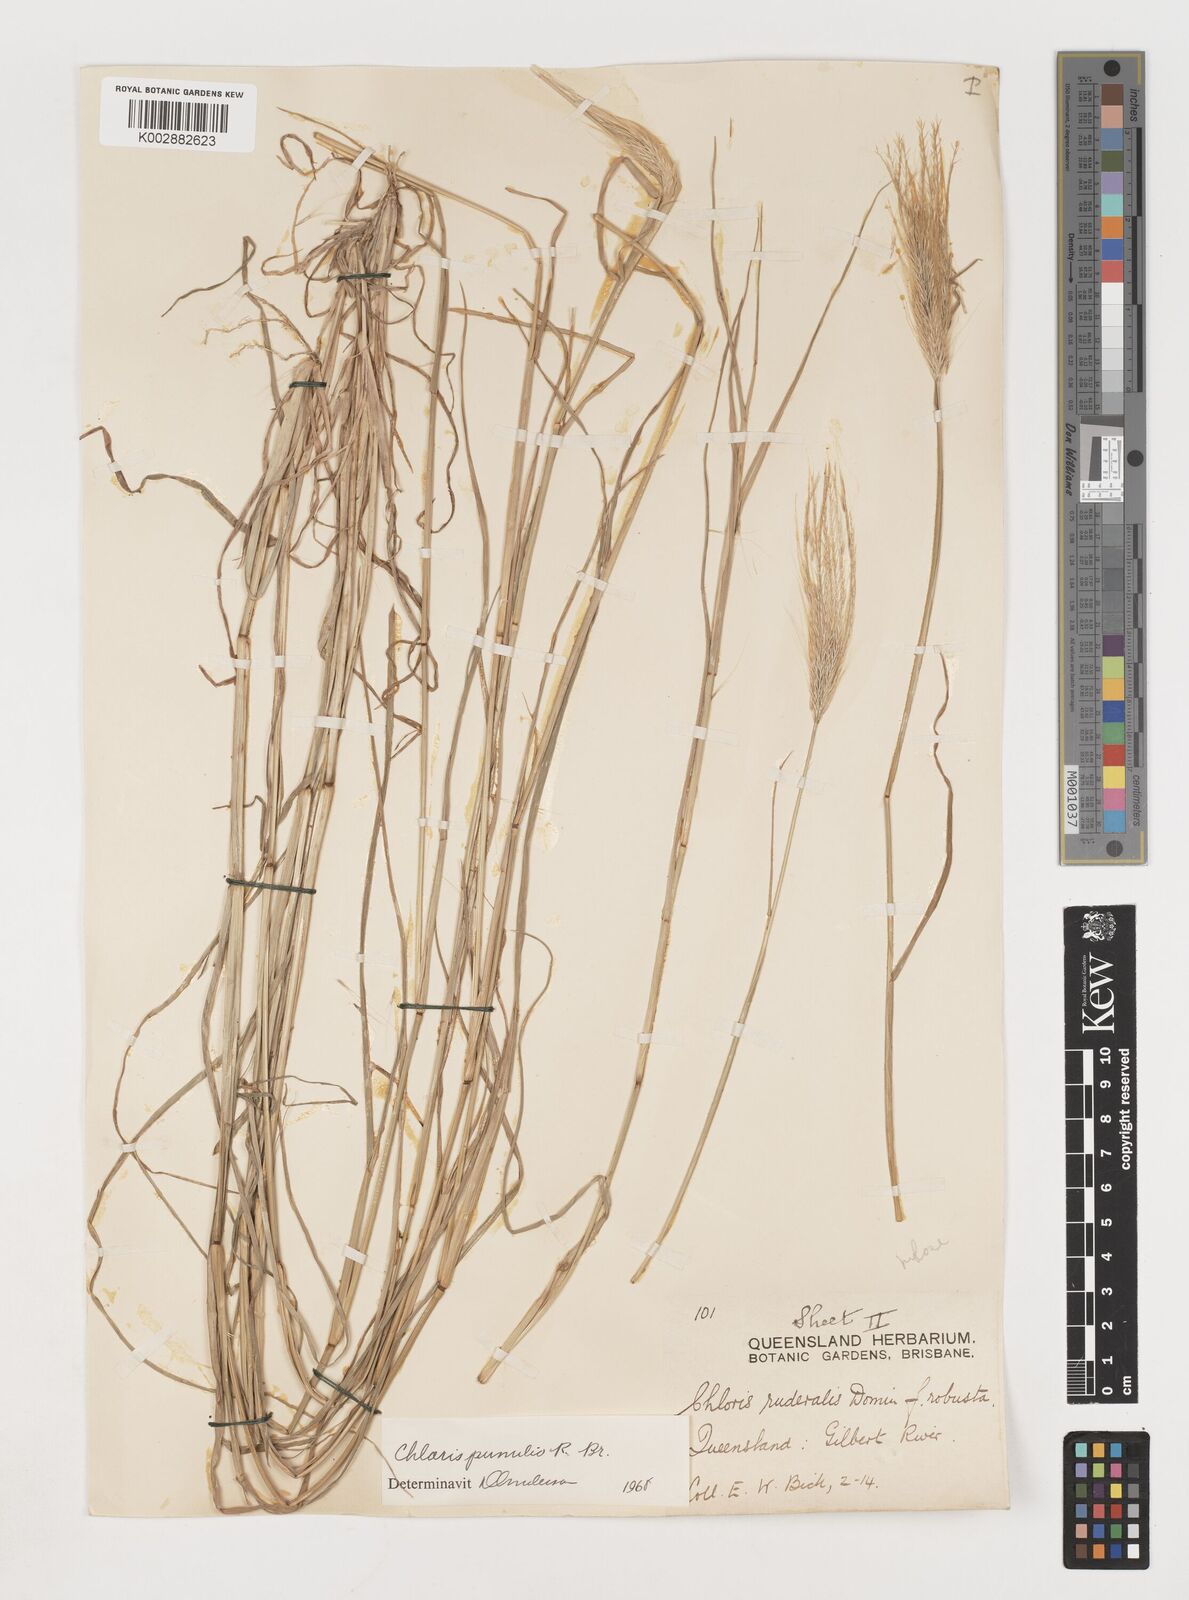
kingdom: Plantae
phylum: Tracheophyta
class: Liliopsida
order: Poales
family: Poaceae
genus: Chloris
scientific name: Chloris pumilio
